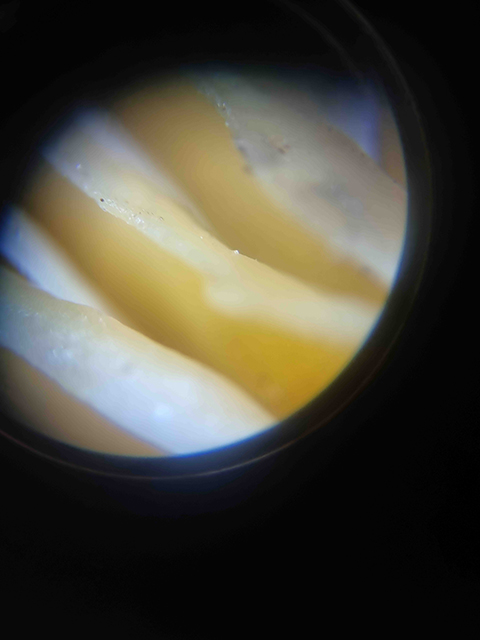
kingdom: Fungi
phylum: Basidiomycota
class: Agaricomycetes
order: Agaricales
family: Physalacriaceae
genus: Flammulina
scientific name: Flammulina
